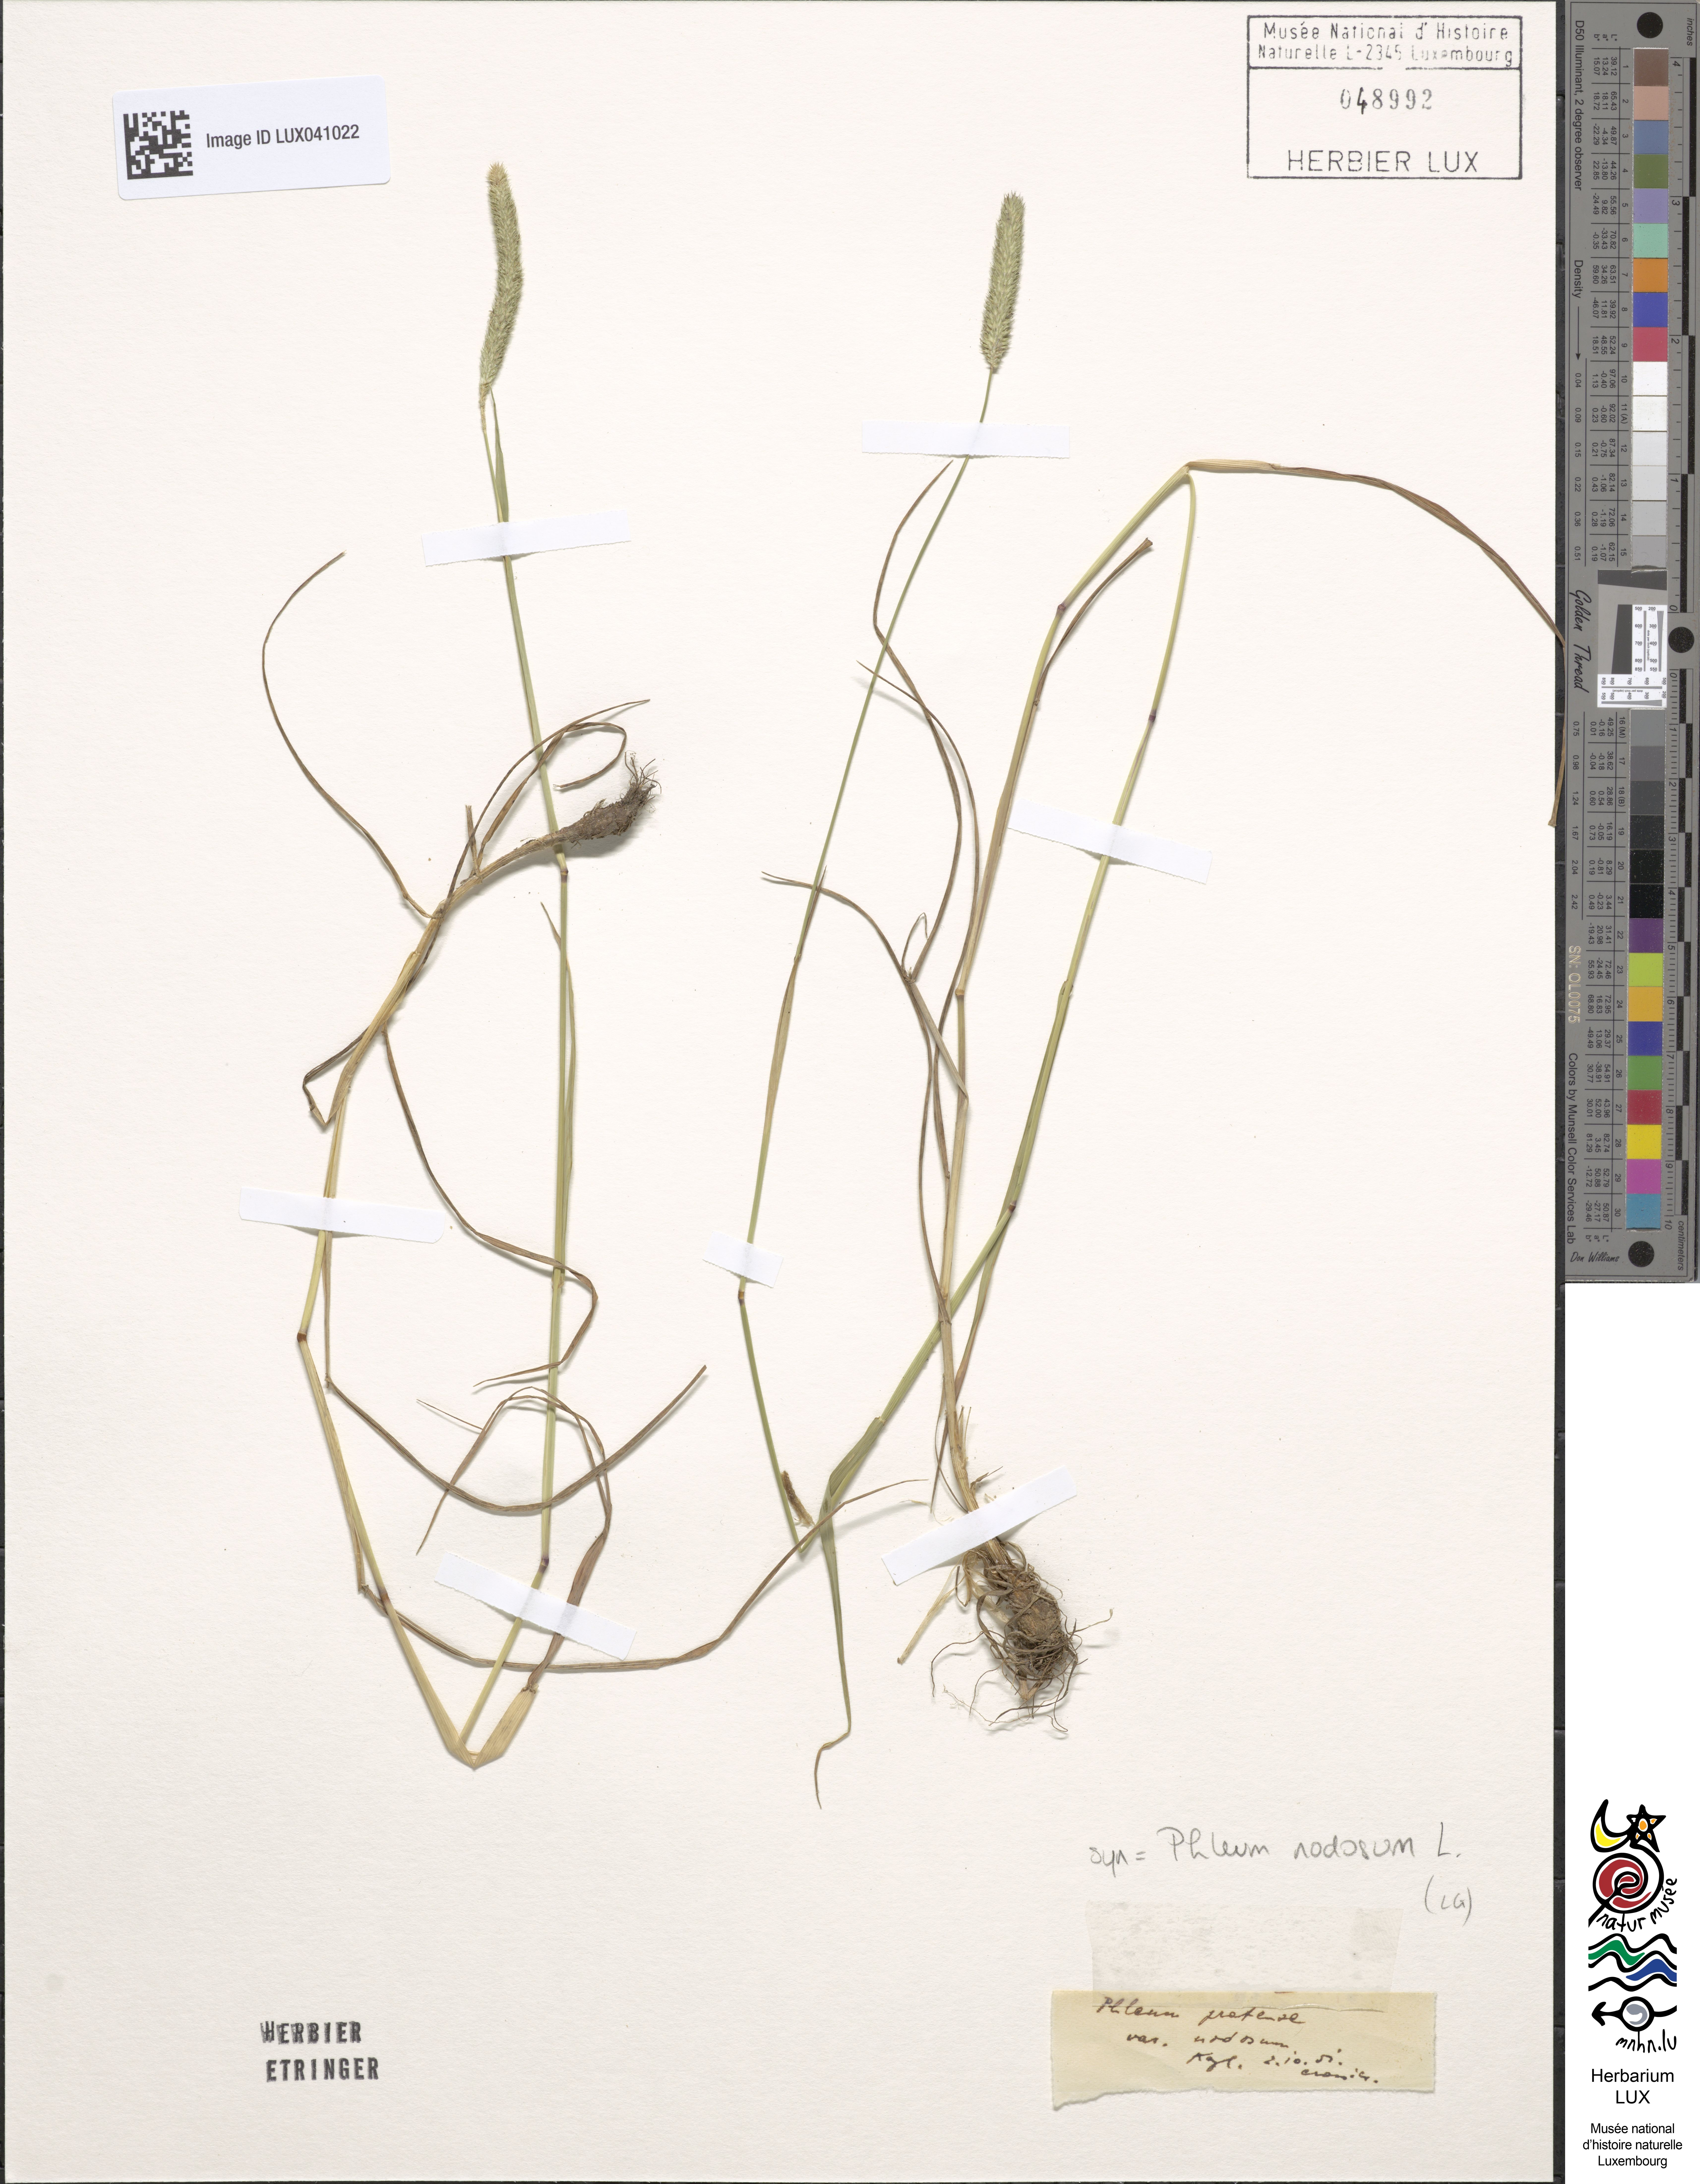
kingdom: Plantae
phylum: Tracheophyta
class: Liliopsida
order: Poales
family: Poaceae
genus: Phleum
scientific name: Phleum pratense
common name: Timothy grass
